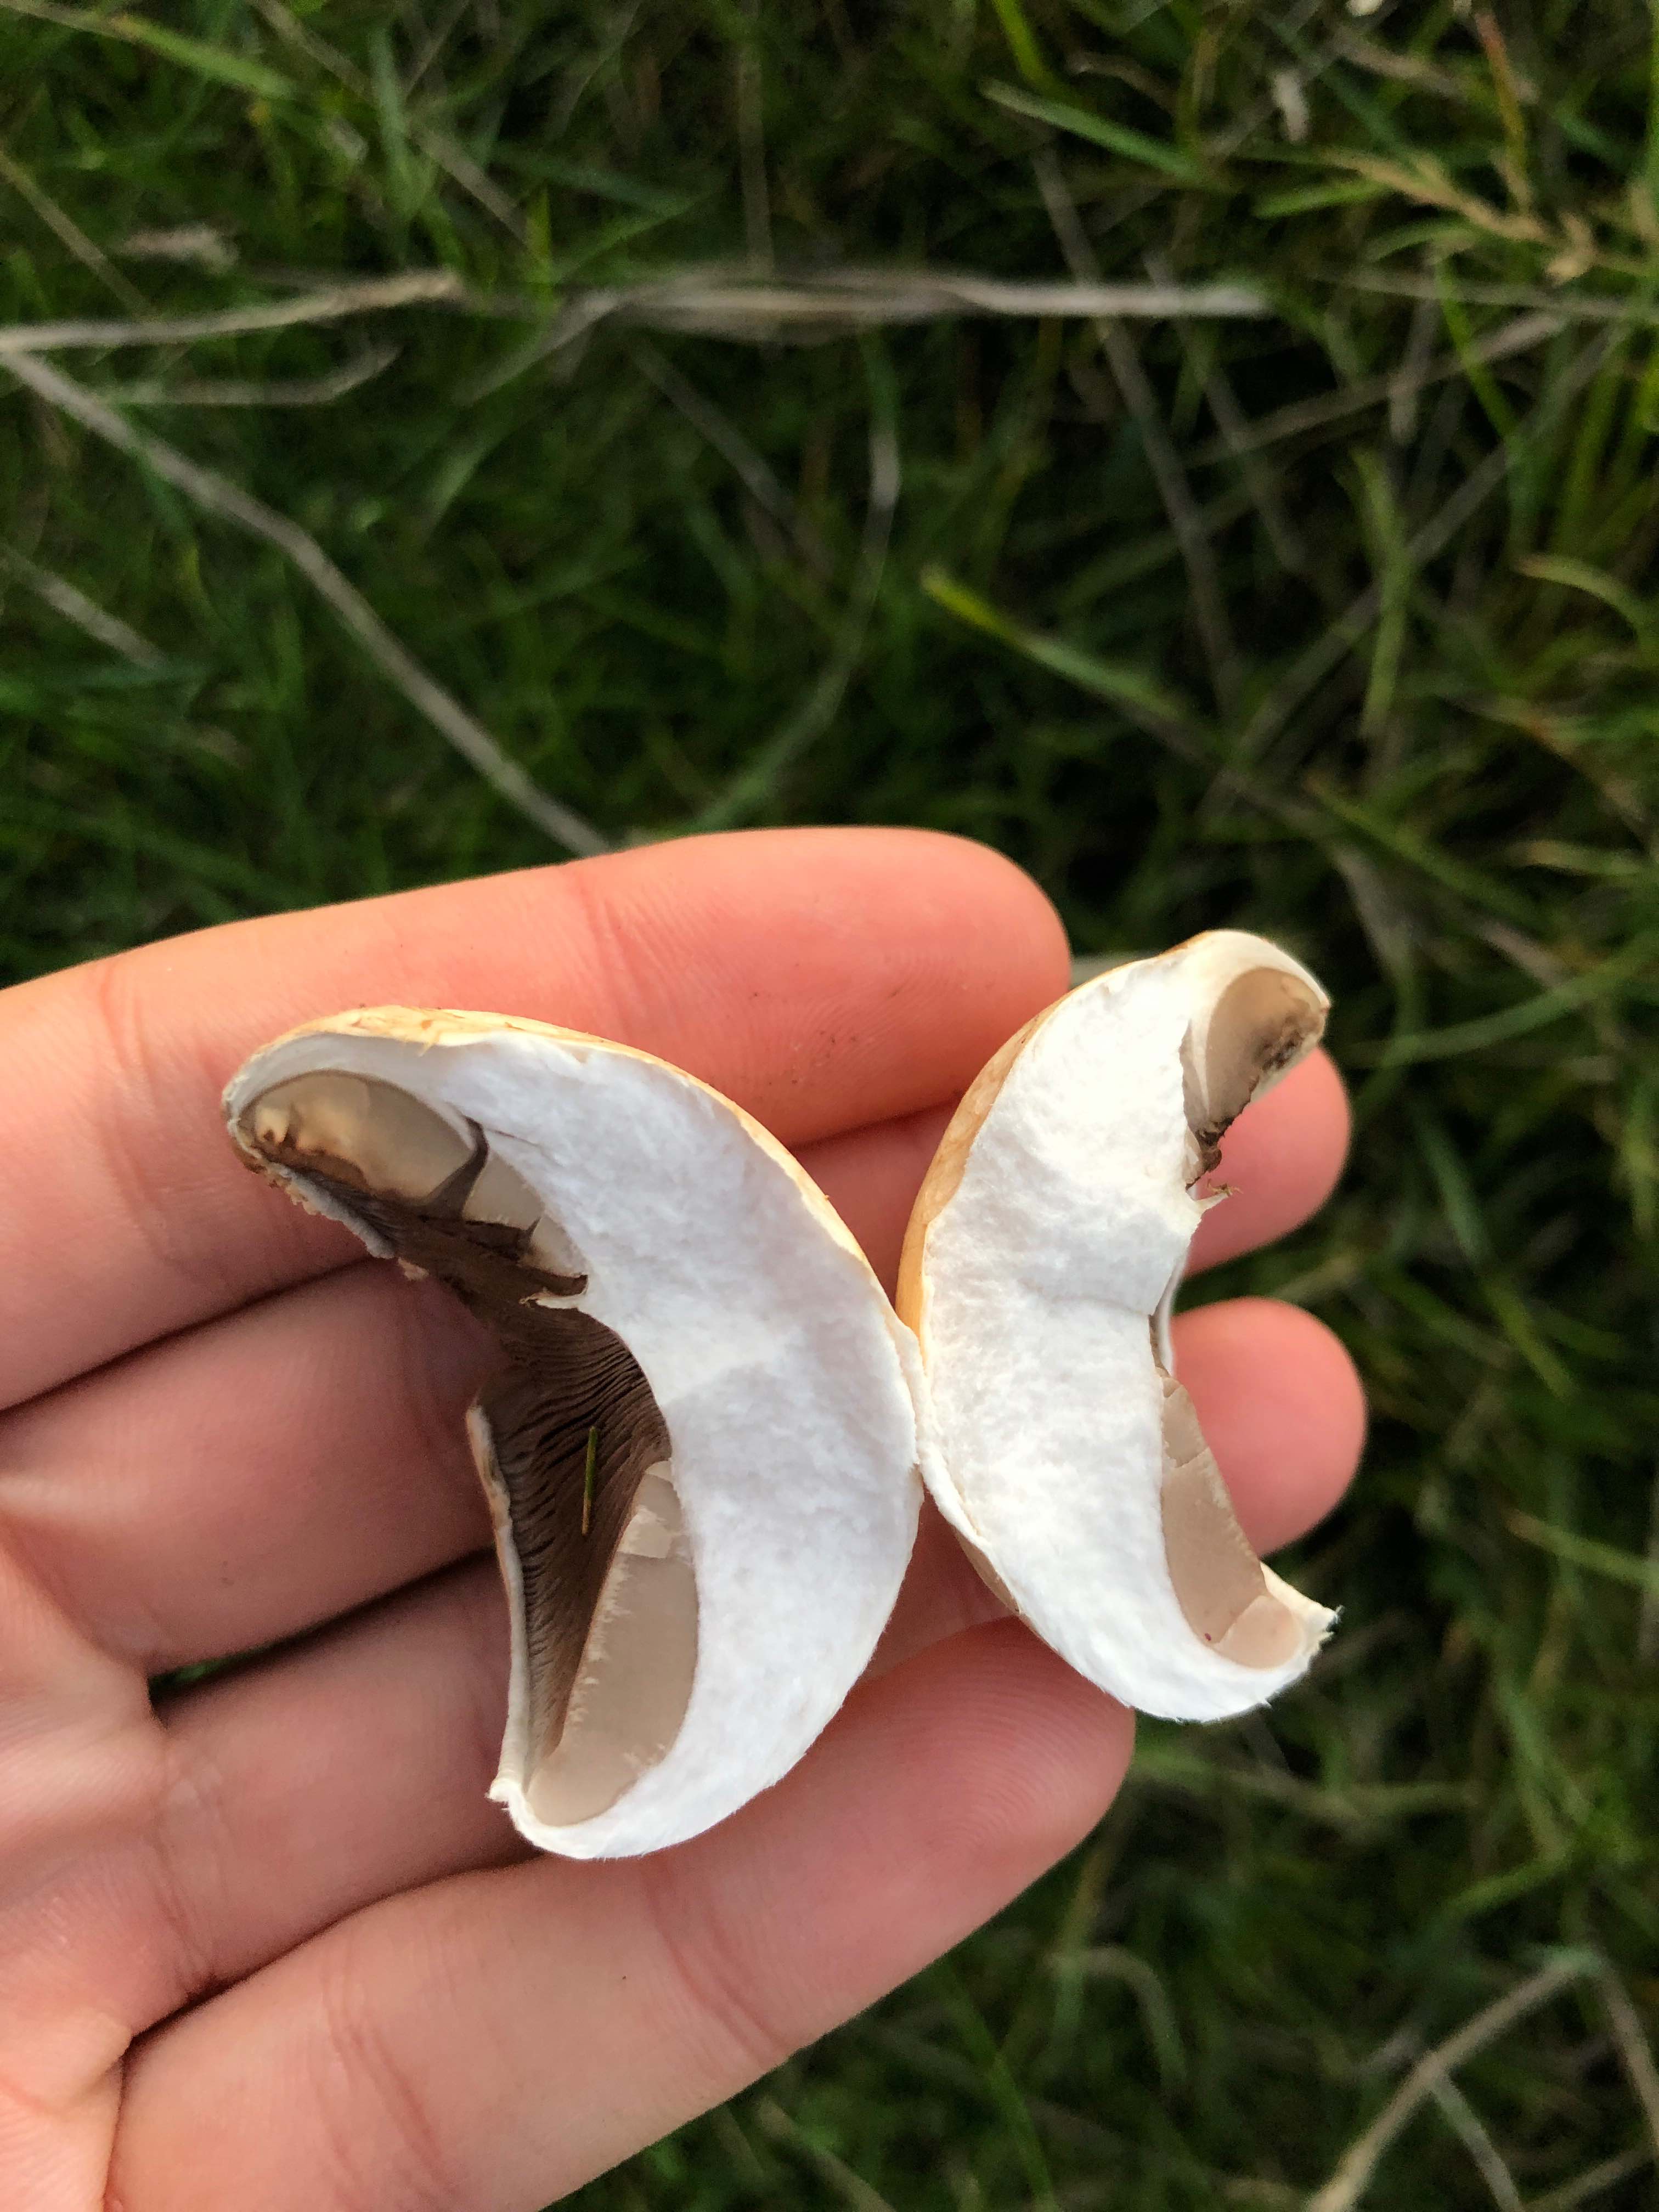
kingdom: Fungi
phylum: Basidiomycota
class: Agaricomycetes
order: Agaricales
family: Agaricaceae
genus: Agaricus
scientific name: Agaricus
